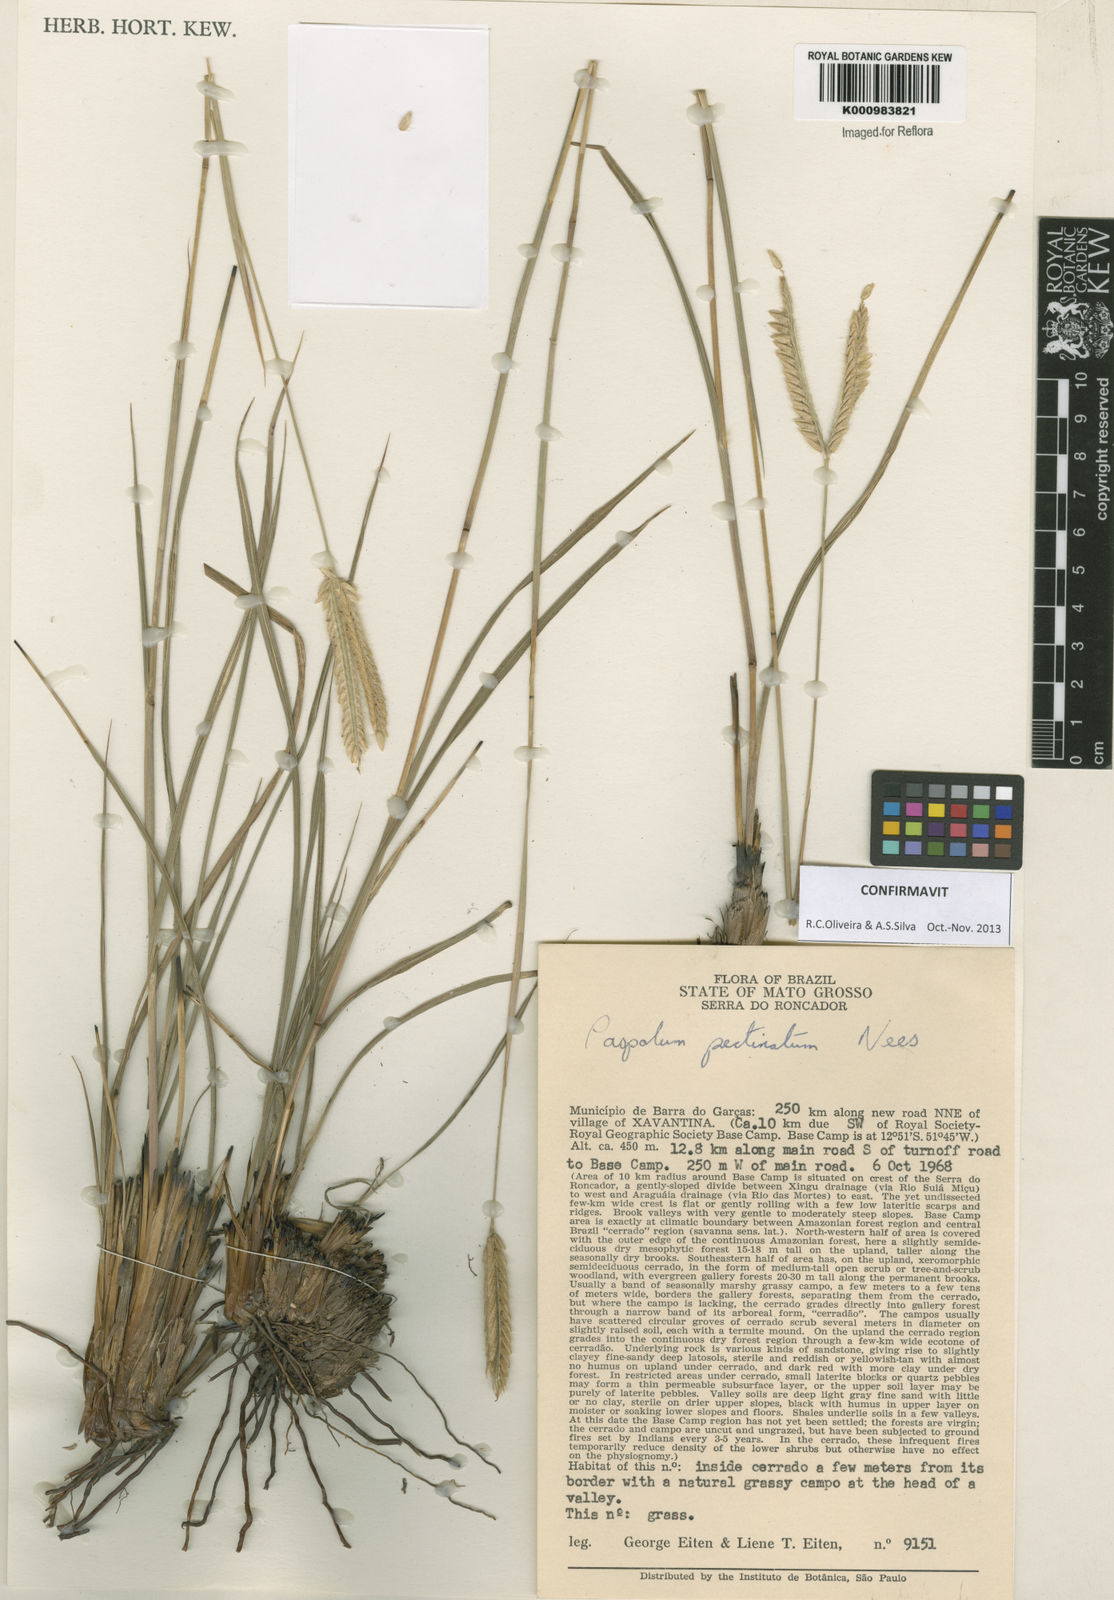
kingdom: Plantae
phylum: Tracheophyta
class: Liliopsida
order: Poales
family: Poaceae
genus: Paspalum
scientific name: Paspalum
